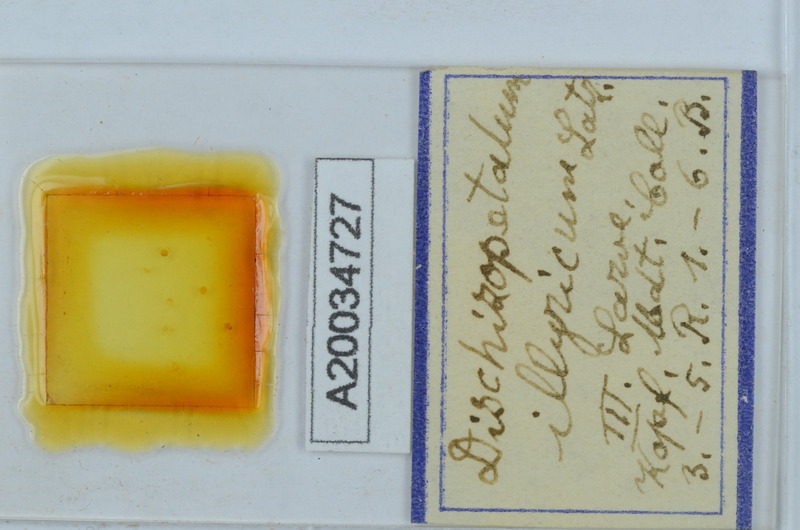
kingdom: Animalia
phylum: Arthropoda
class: Diplopoda
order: Callipodida
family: Schizopetalidae
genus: Dischizopetalum
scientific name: Dischizopetalum illyricum
